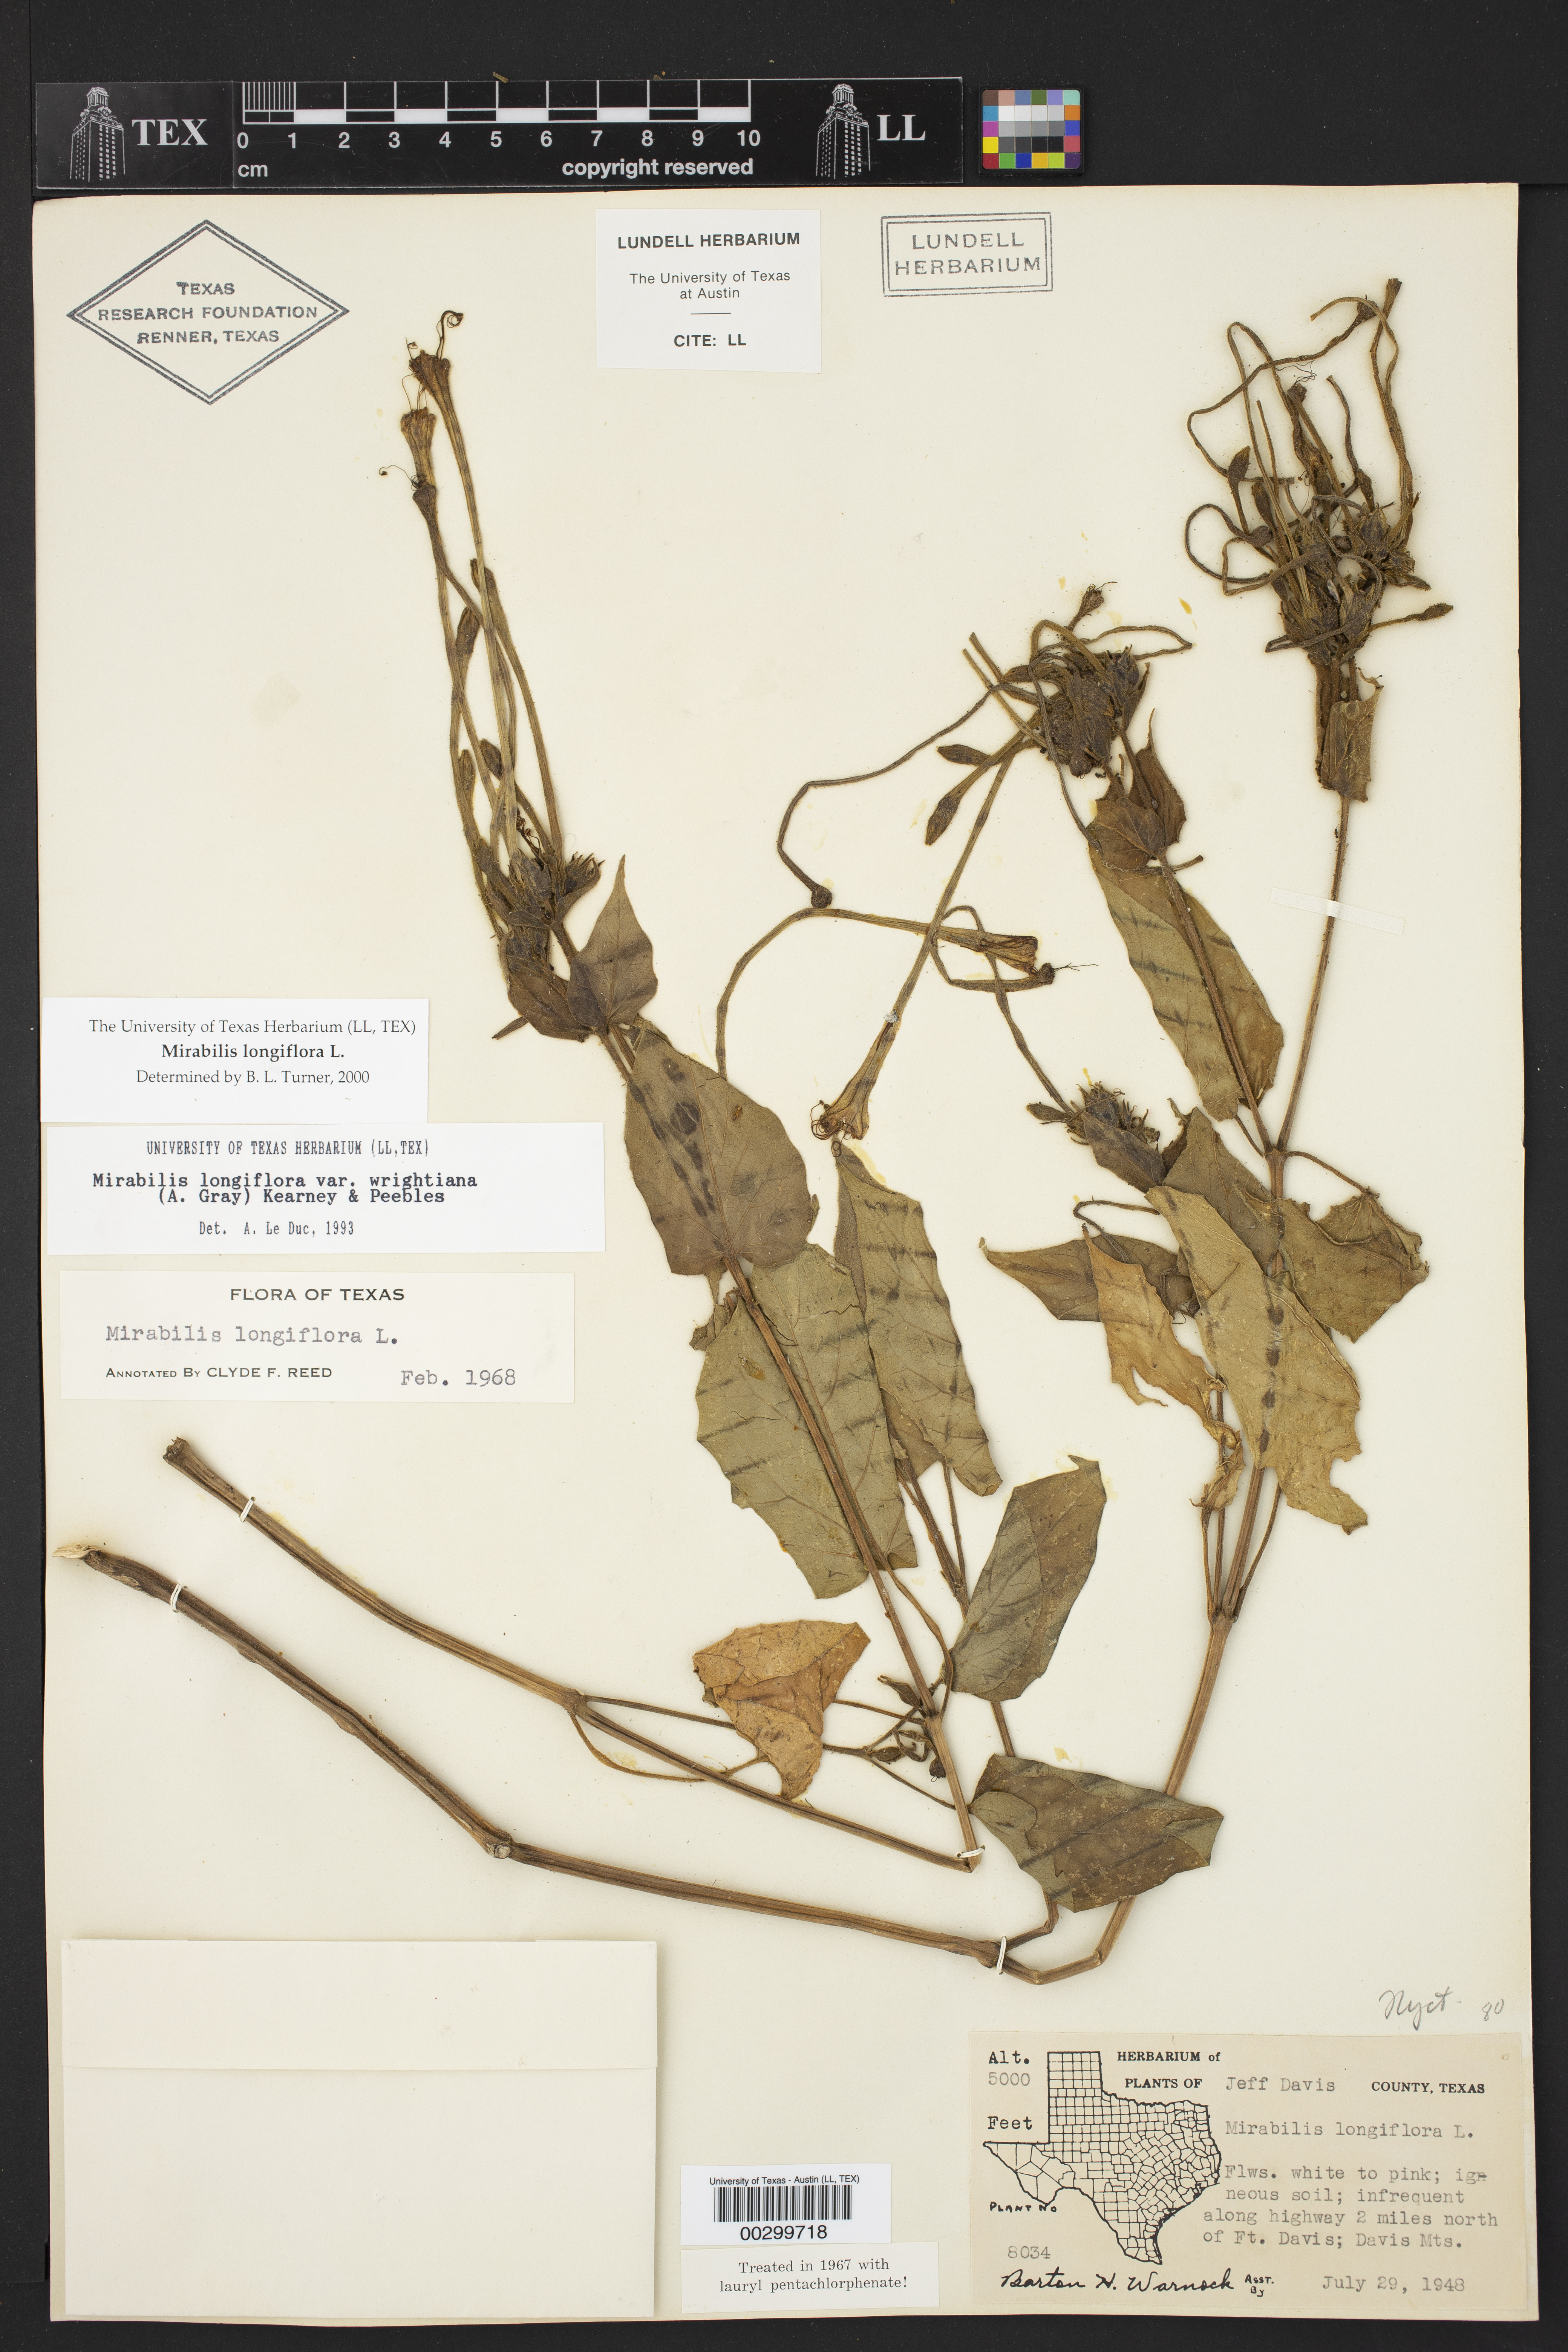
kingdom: Plantae
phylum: Tracheophyta
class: Magnoliopsida
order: Caryophyllales
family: Nyctaginaceae
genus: Mirabilis
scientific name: Mirabilis longiflora
